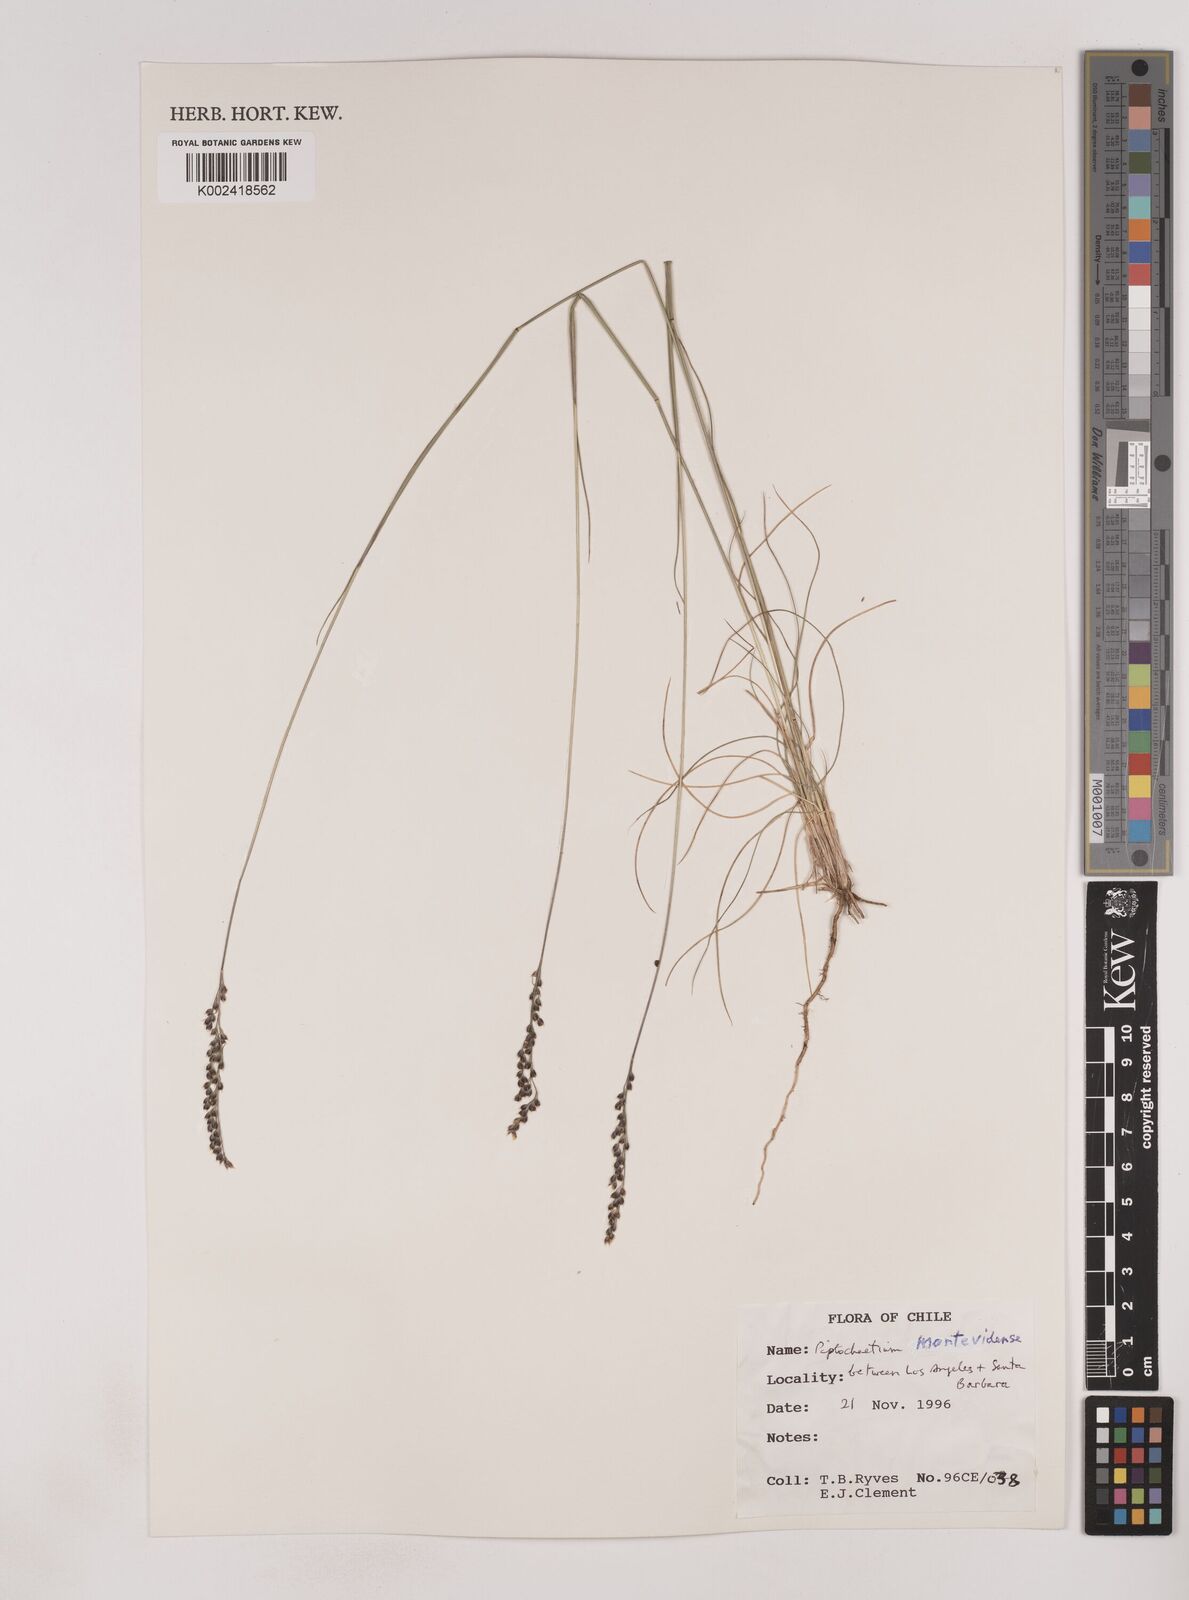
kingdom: Plantae
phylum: Tracheophyta
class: Liliopsida
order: Poales
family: Poaceae
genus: Piptochaetium
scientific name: Piptochaetium montevidense
